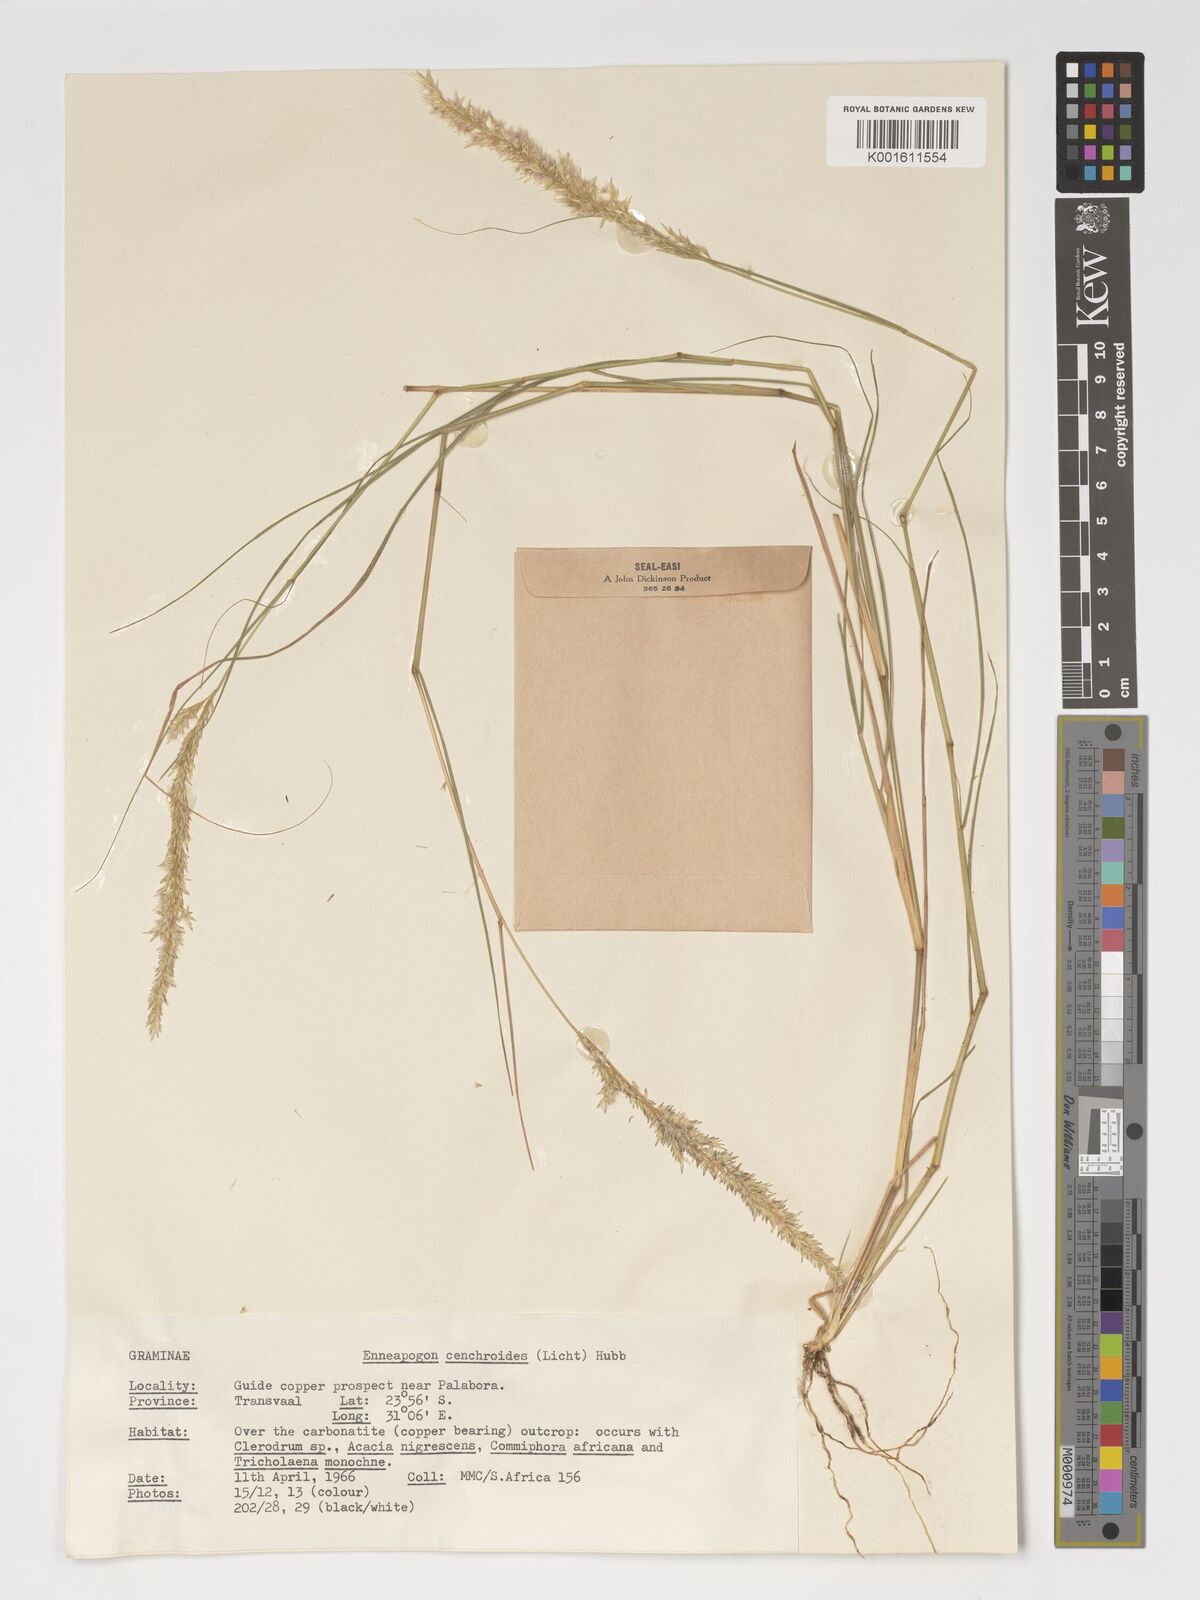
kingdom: Plantae
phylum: Tracheophyta
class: Liliopsida
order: Poales
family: Poaceae
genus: Enneapogon
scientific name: Enneapogon cenchroides
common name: Soft feather pappusgrass
